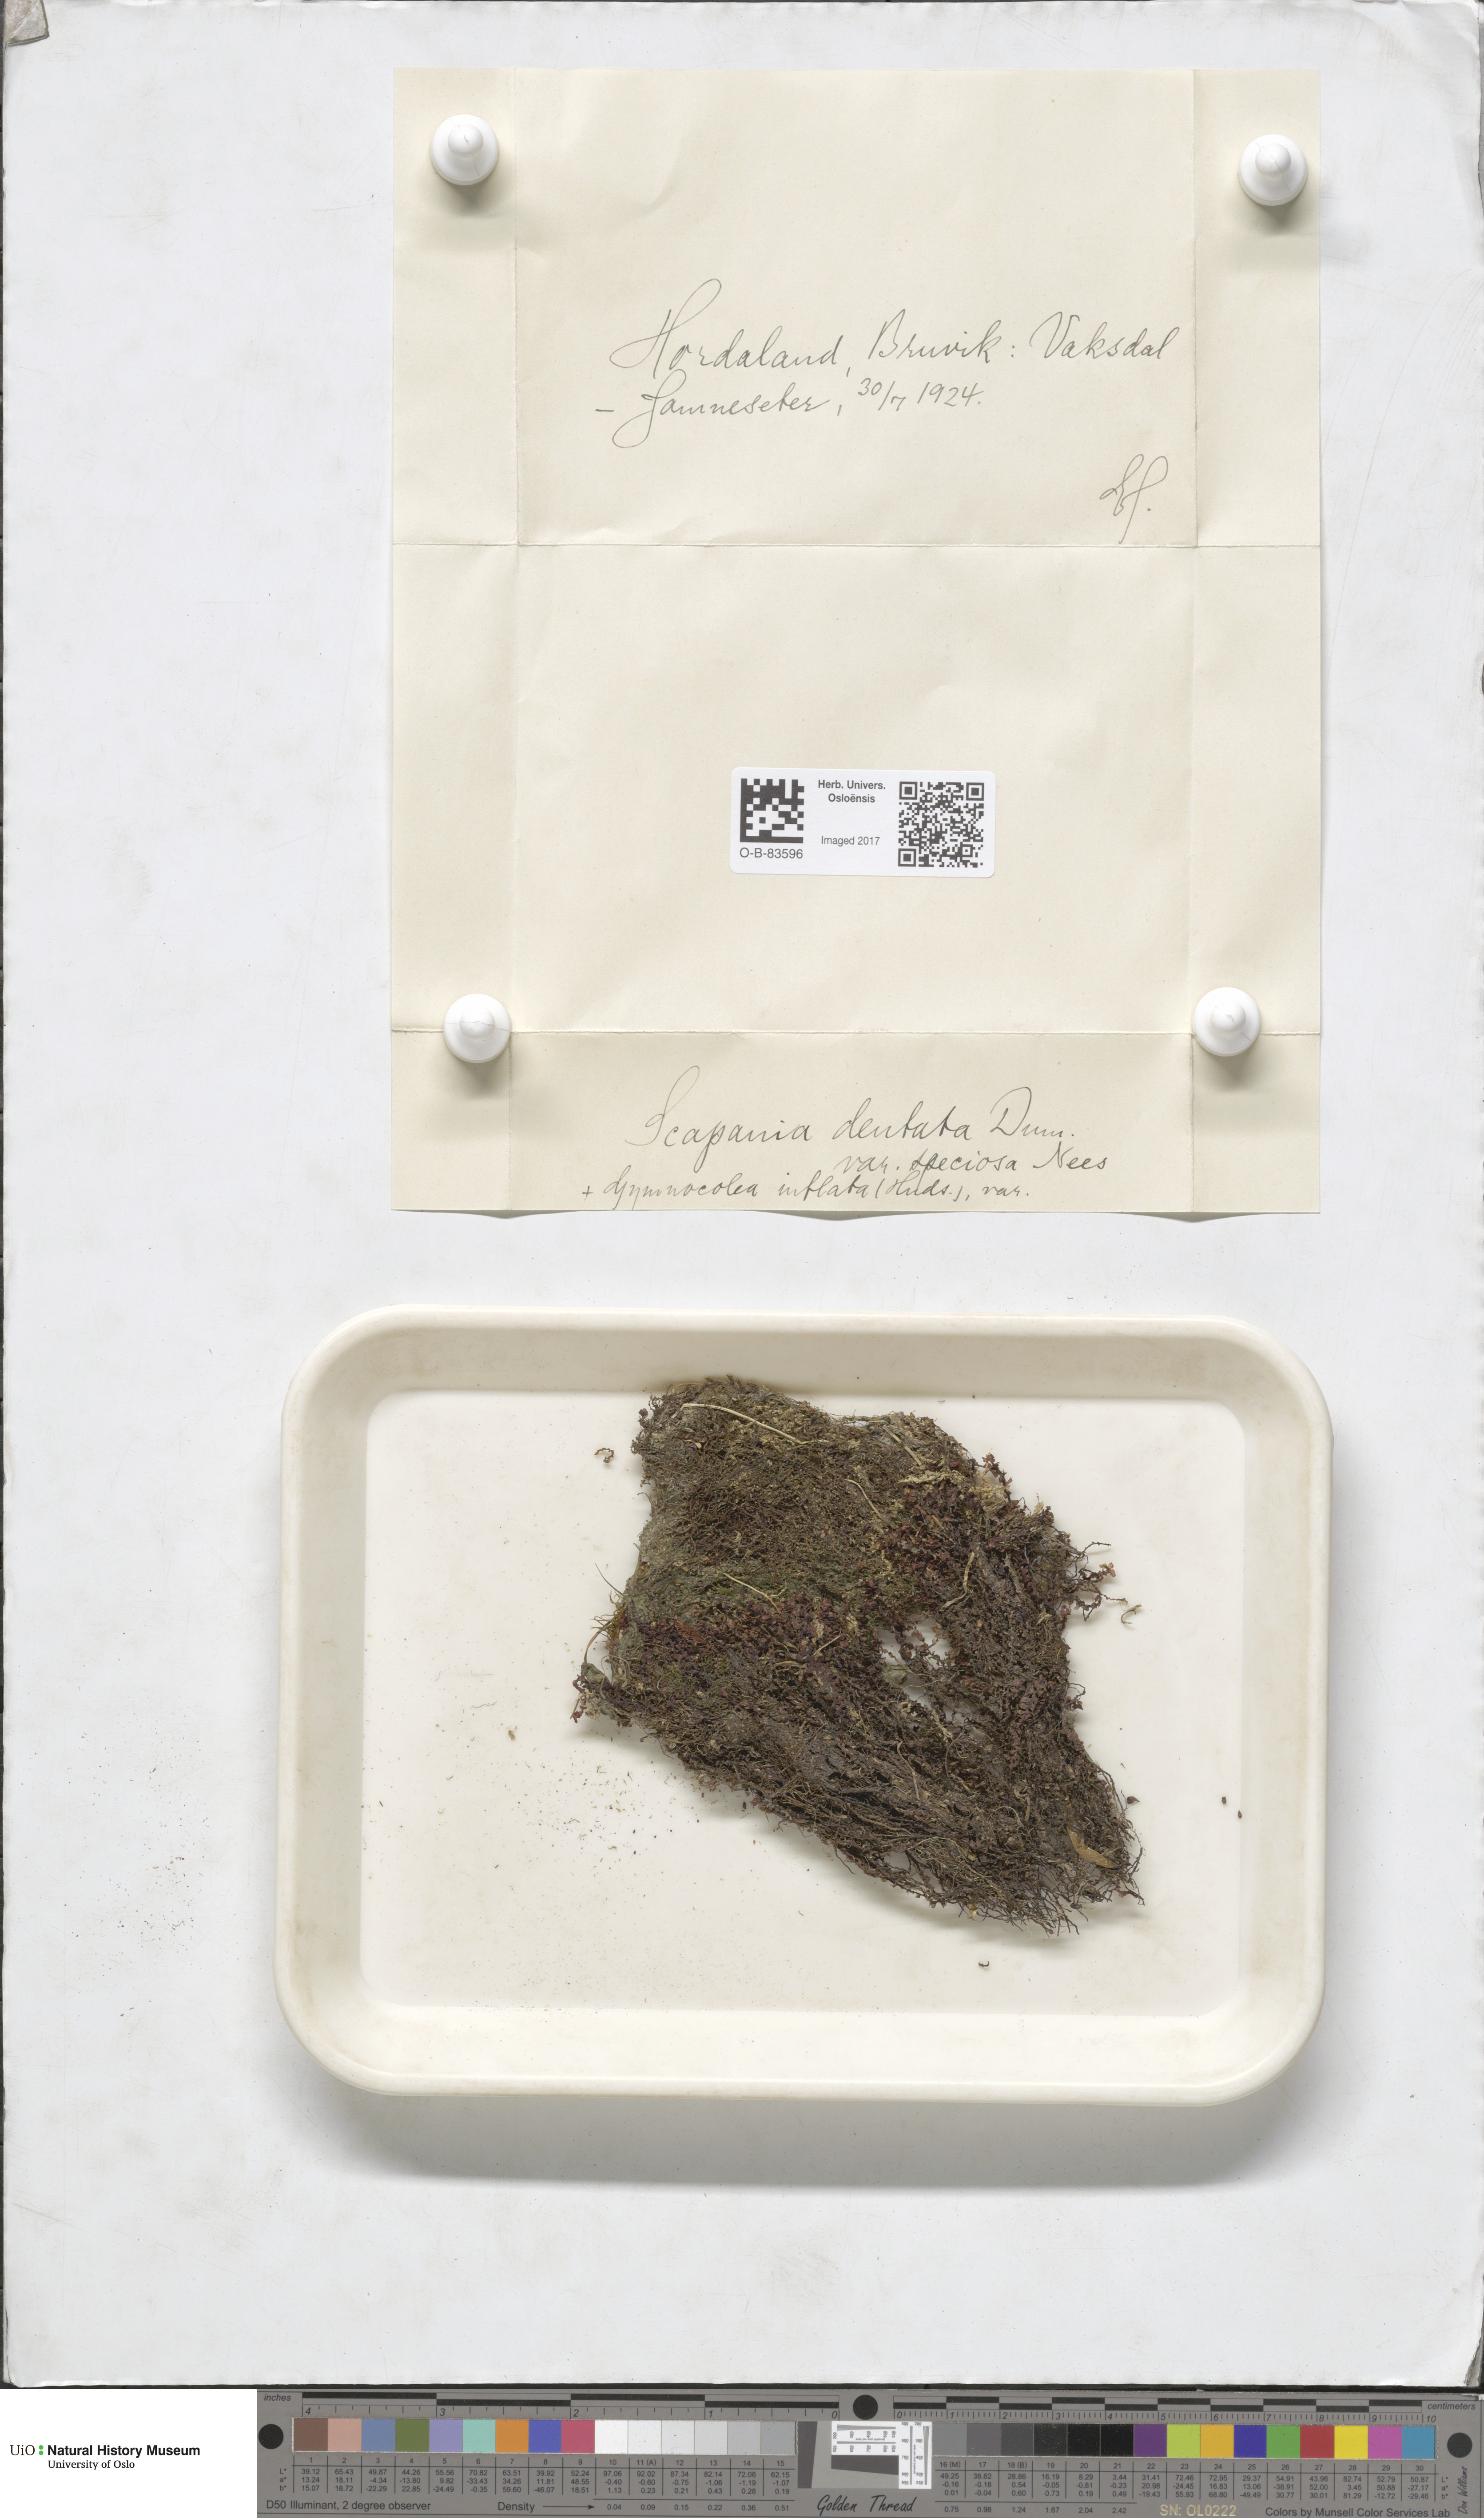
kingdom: Plantae
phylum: Marchantiophyta
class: Jungermanniopsida
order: Jungermanniales
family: Scapaniaceae
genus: Scapania
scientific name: Scapania undulata
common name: Water earwort
